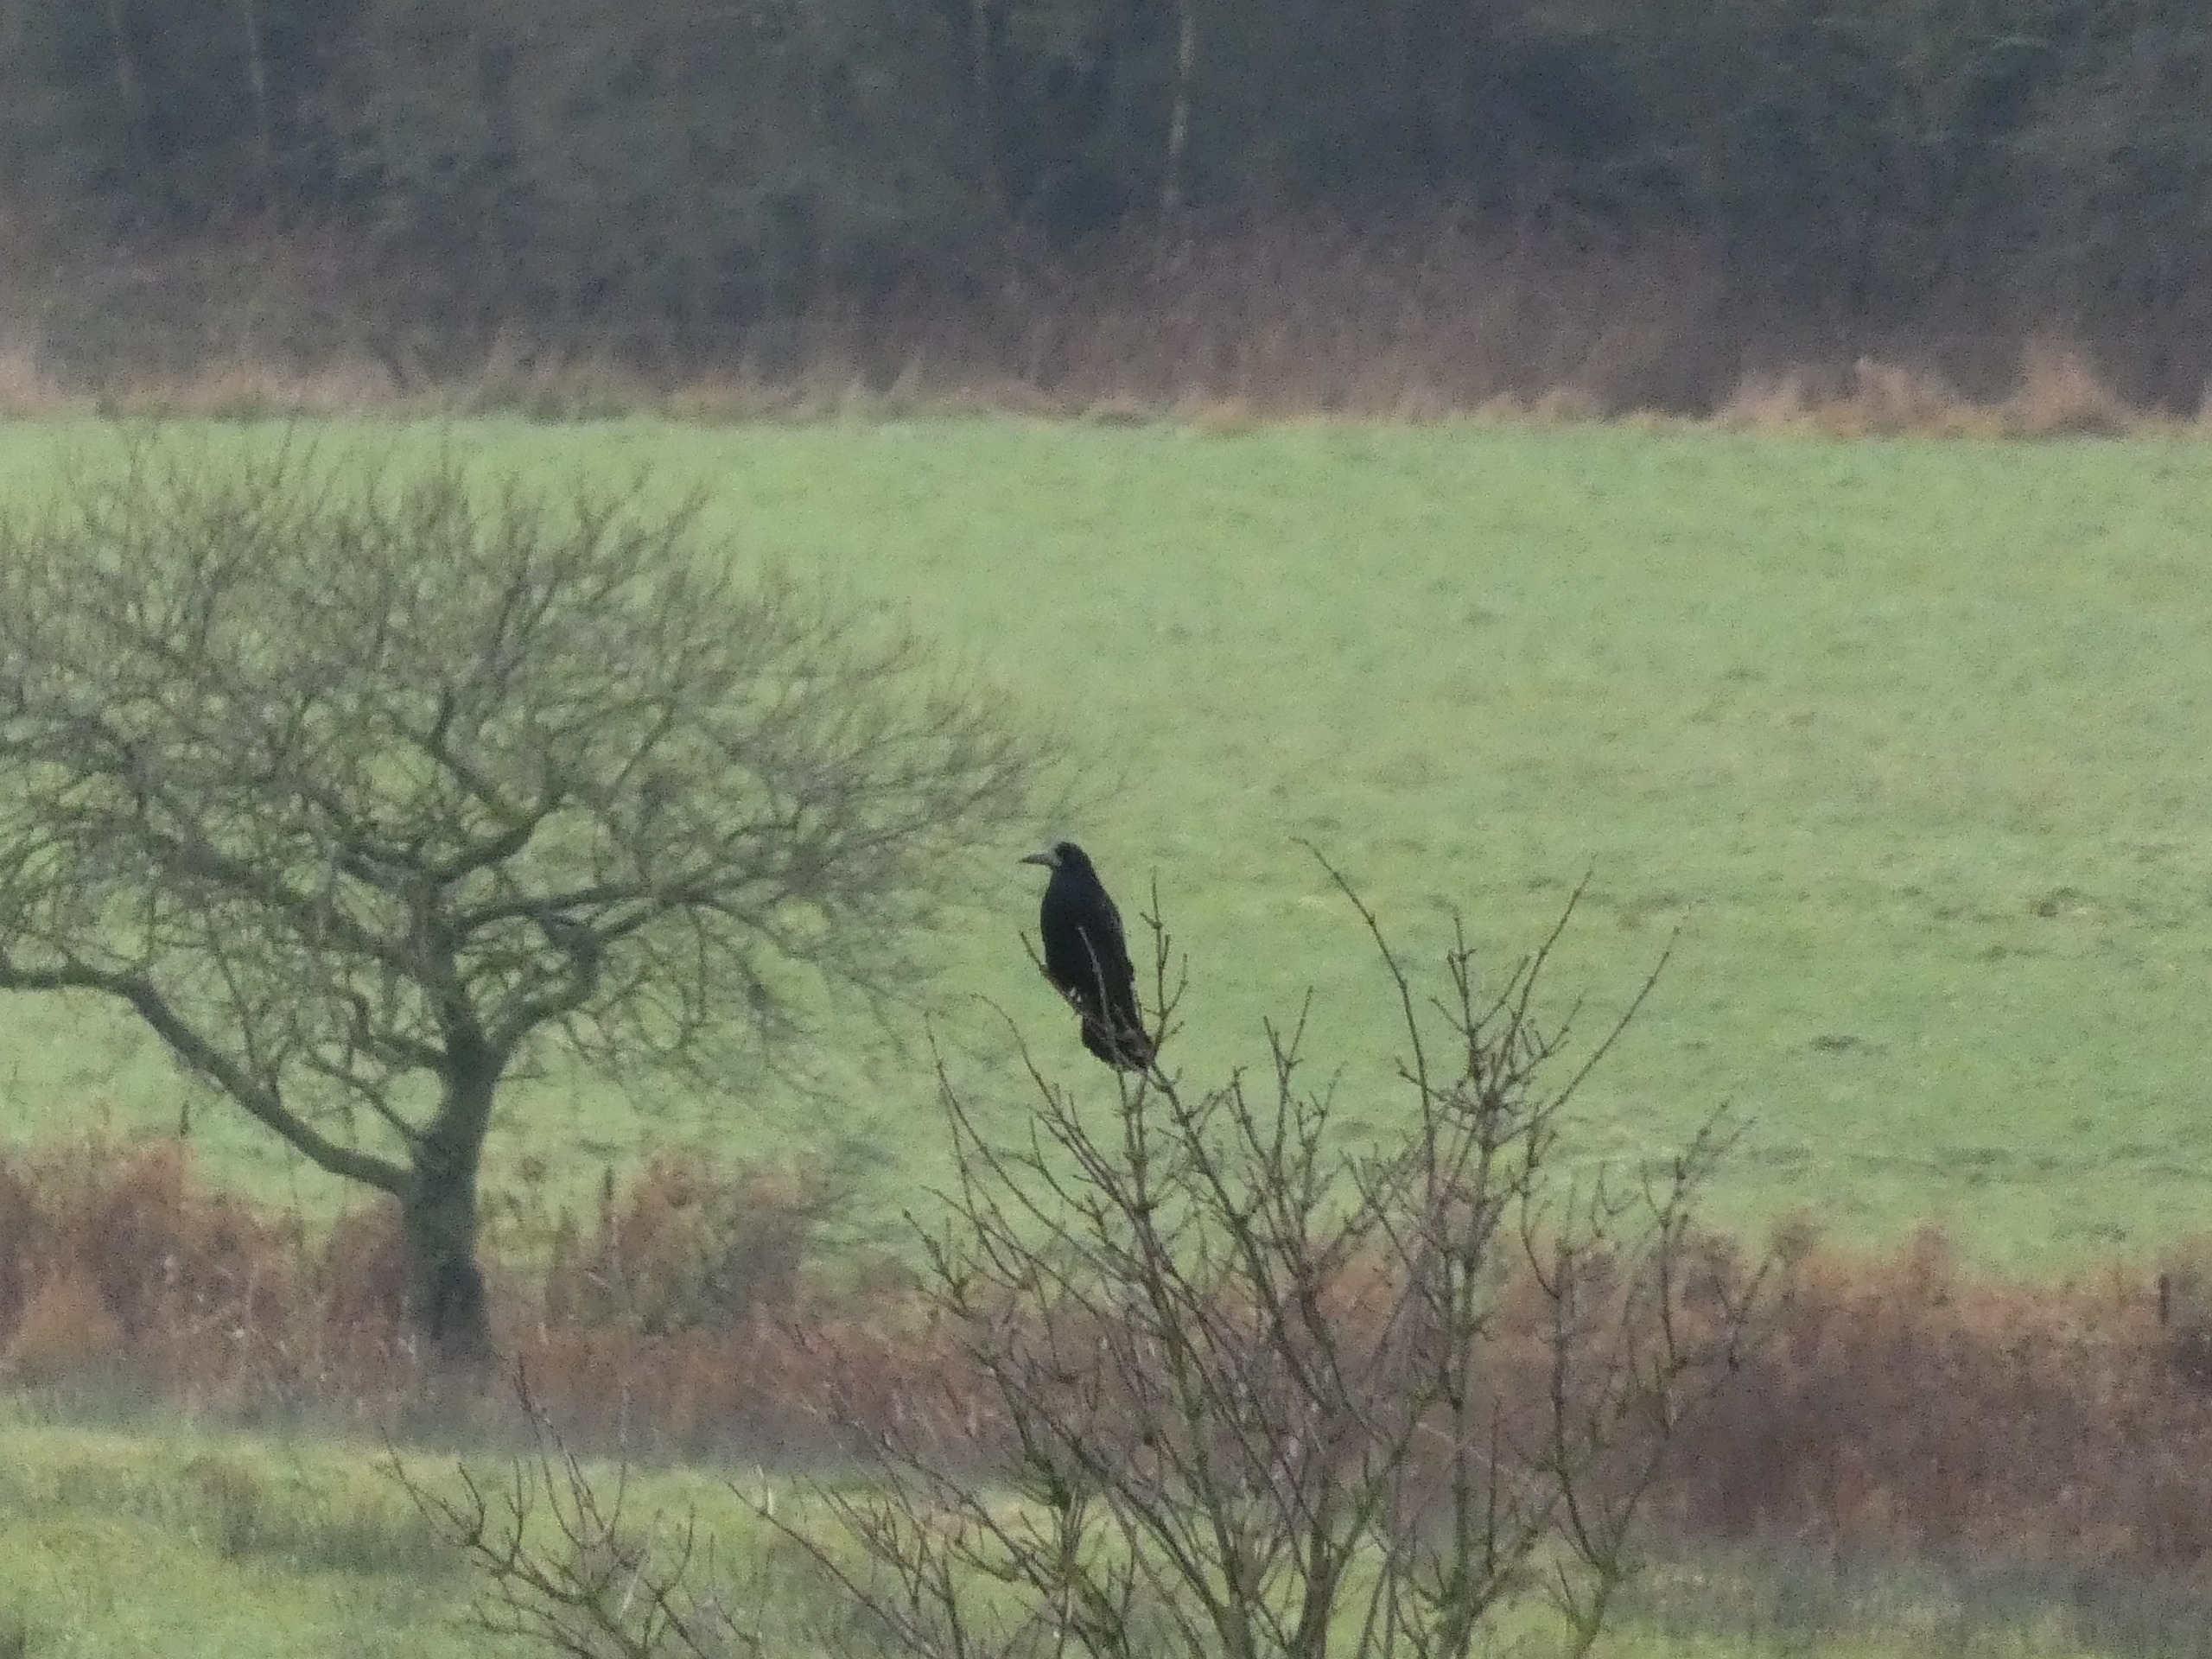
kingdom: Animalia
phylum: Chordata
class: Aves
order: Passeriformes
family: Corvidae
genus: Corvus
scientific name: Corvus frugilegus
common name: Råge
